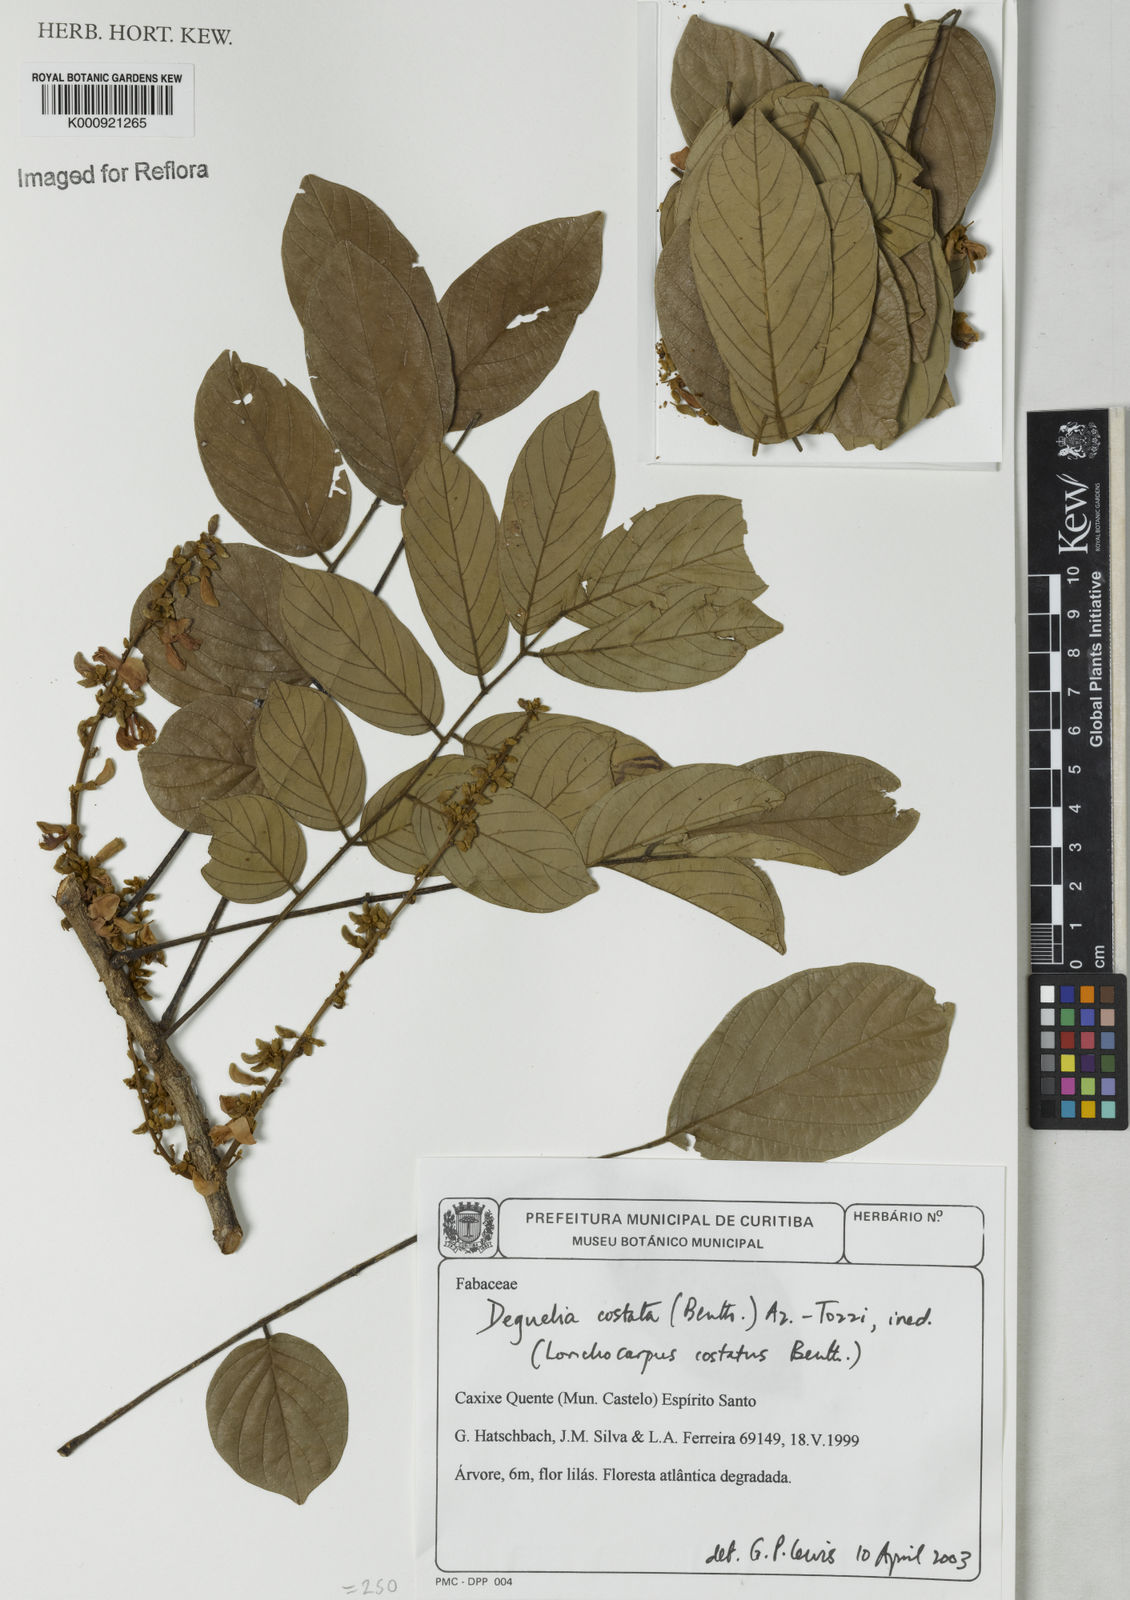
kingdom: Plantae
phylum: Tracheophyta
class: Magnoliopsida
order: Fabales
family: Fabaceae
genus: Deguelia
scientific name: Deguelia costata
